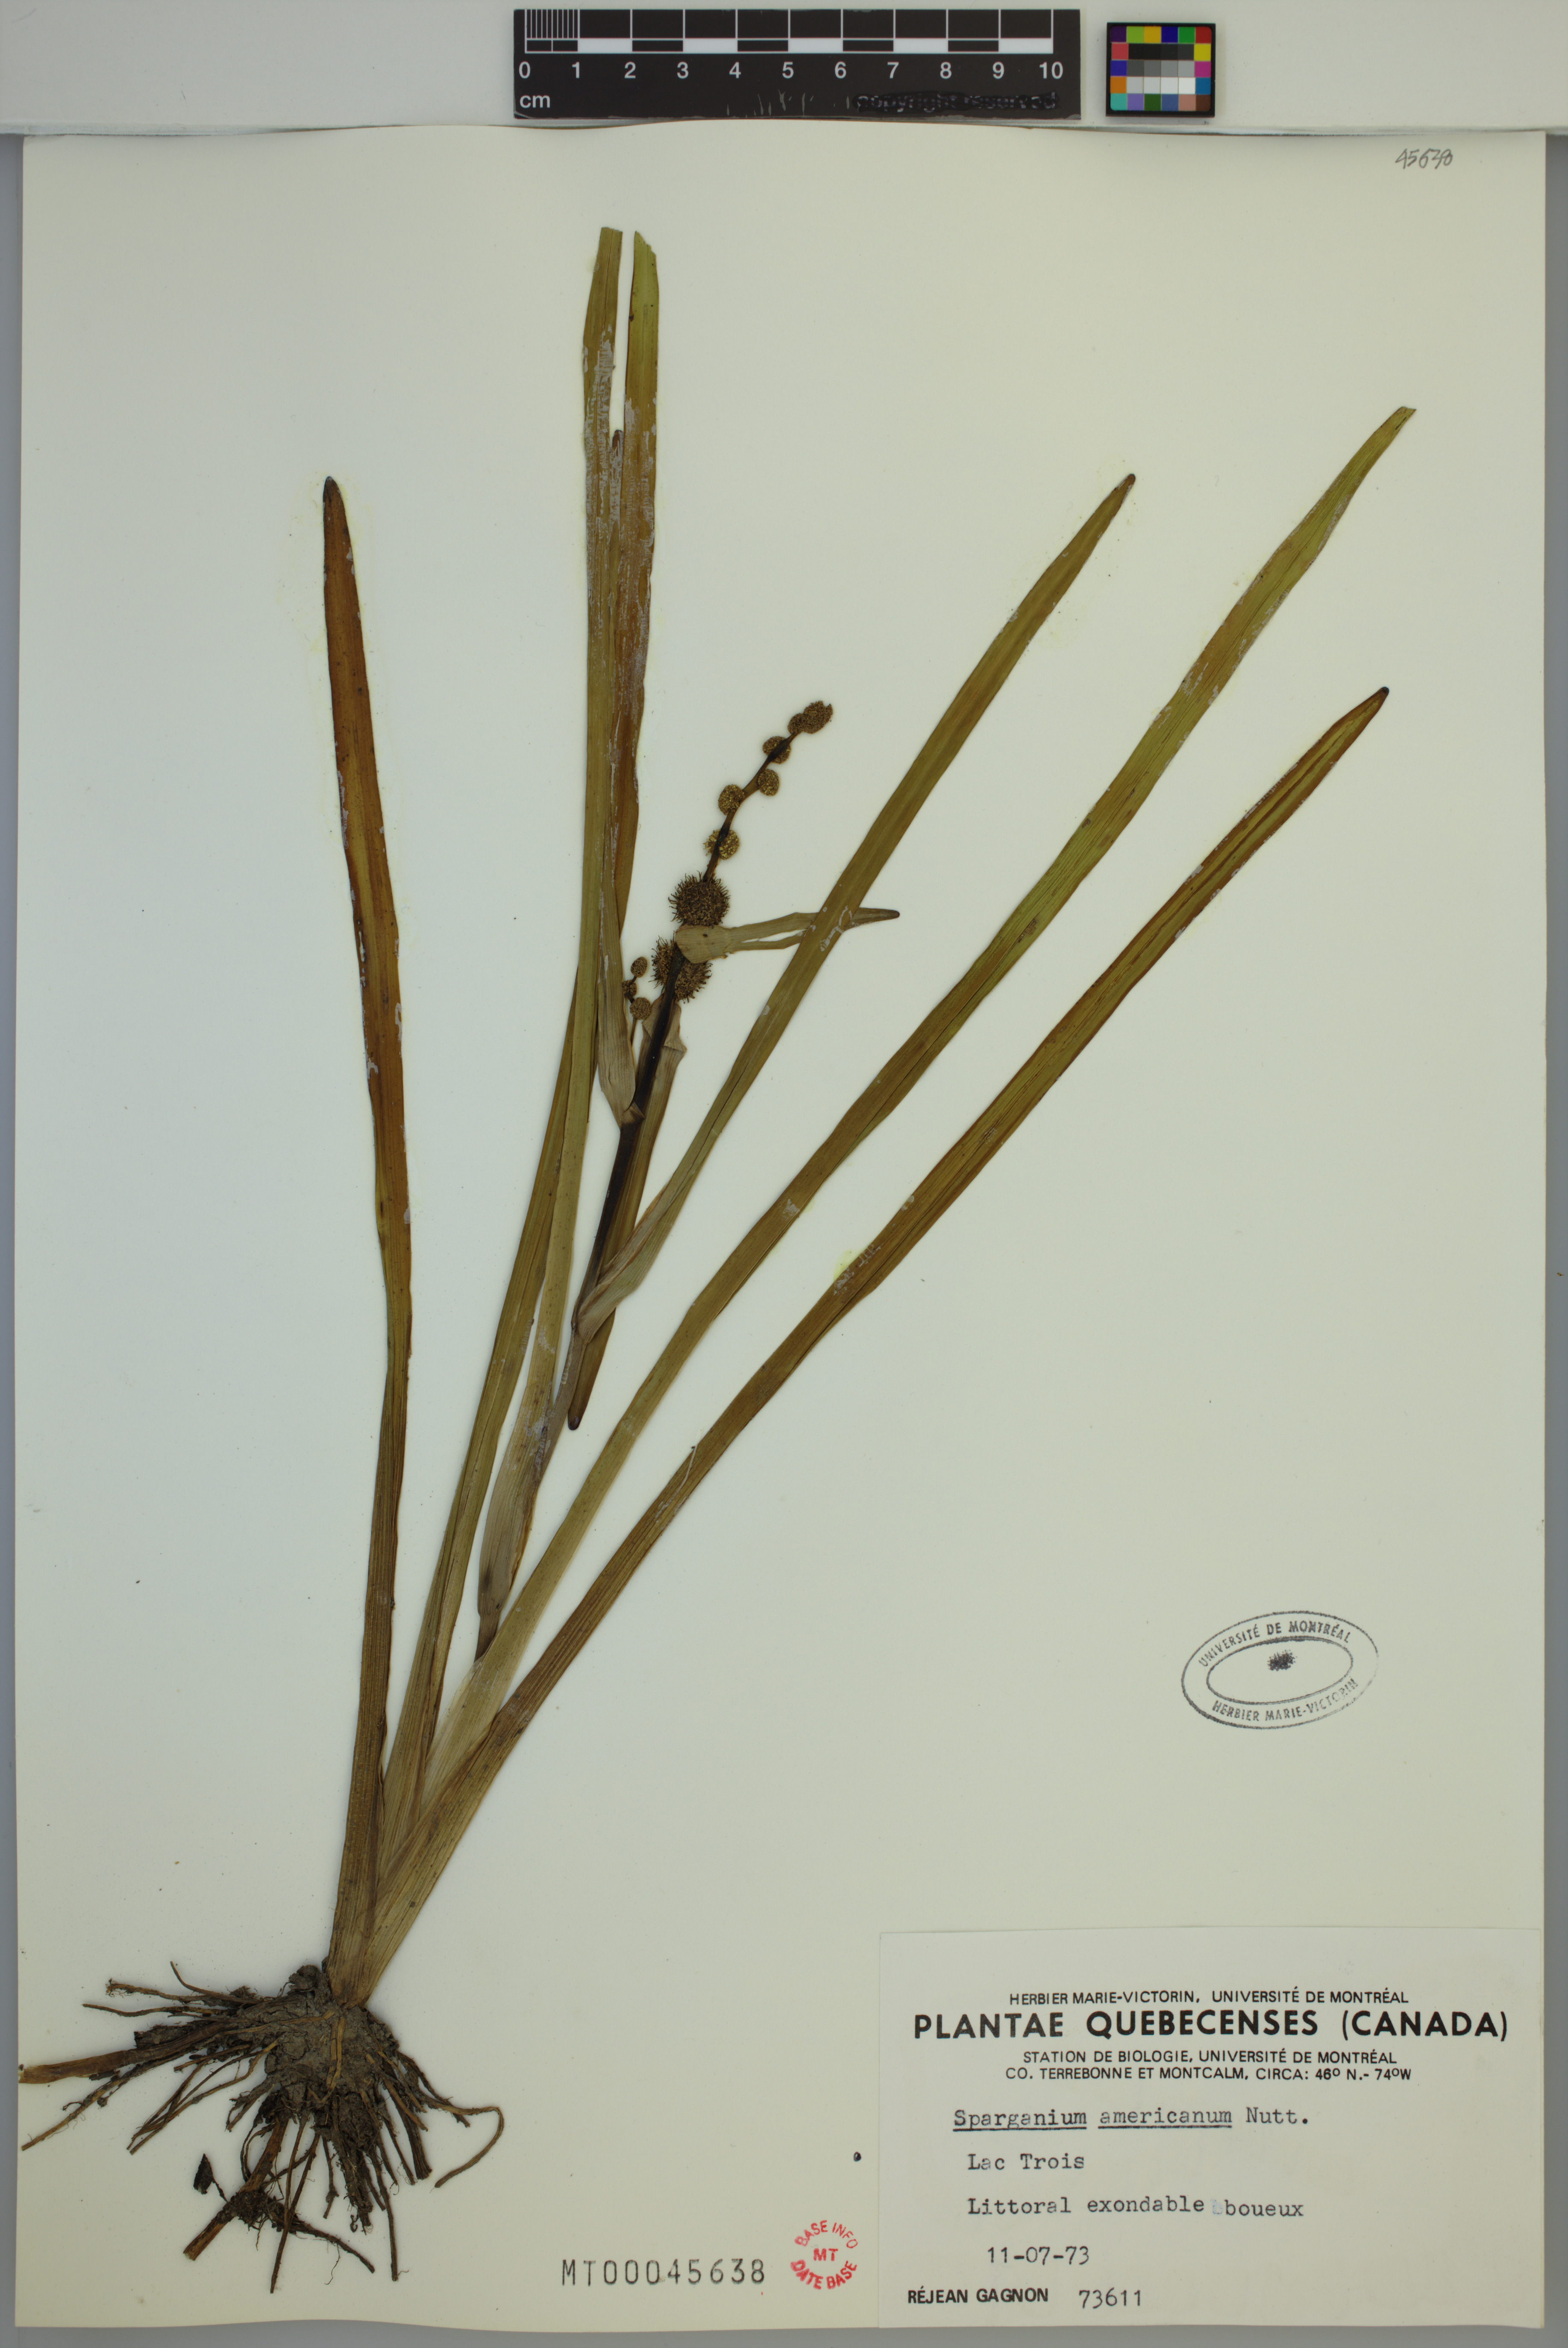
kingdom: Plantae
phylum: Tracheophyta
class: Liliopsida
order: Poales
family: Typhaceae
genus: Sparganium
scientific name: Sparganium americanum
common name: American burreed
